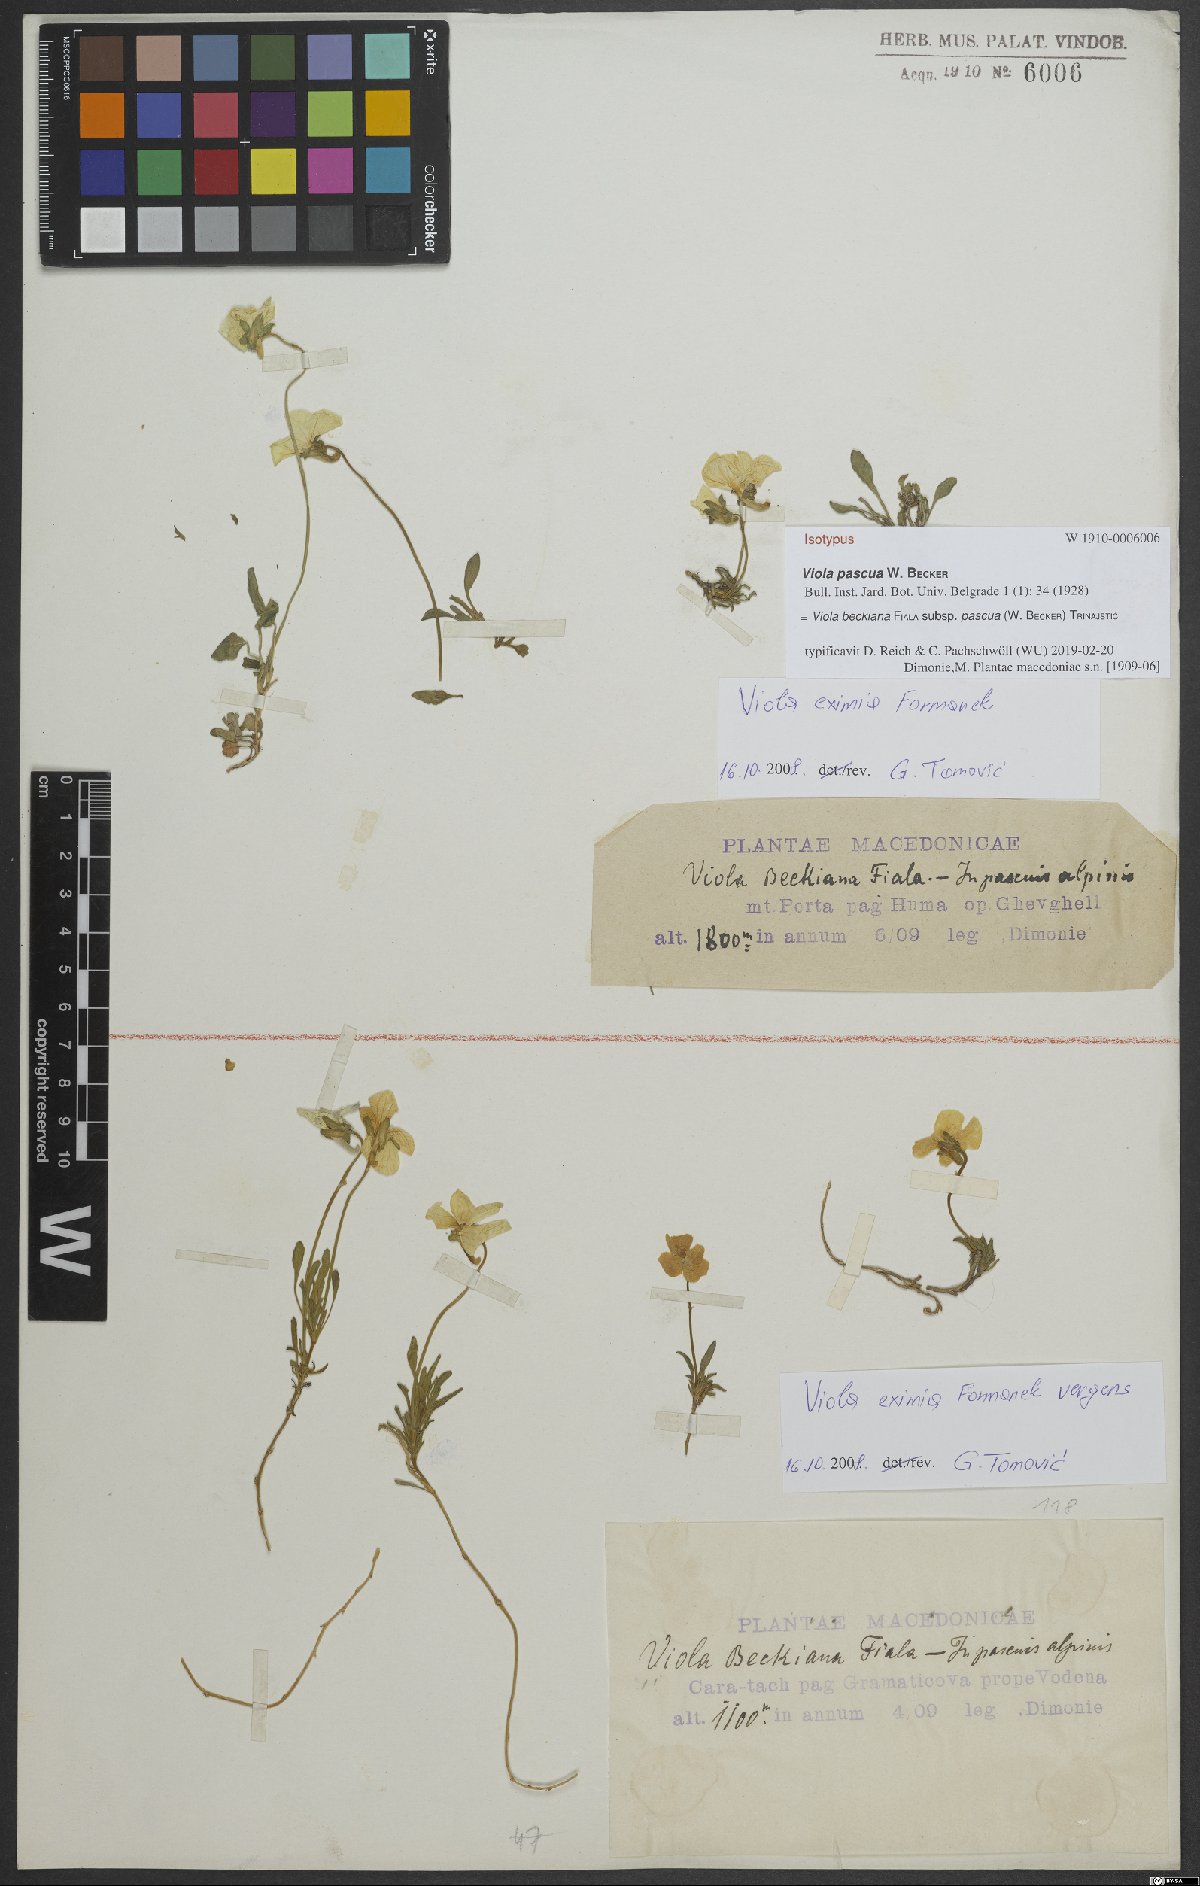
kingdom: Plantae
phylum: Tracheophyta
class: Magnoliopsida
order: Malpighiales
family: Violaceae
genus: Viola
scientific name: Viola eximia
